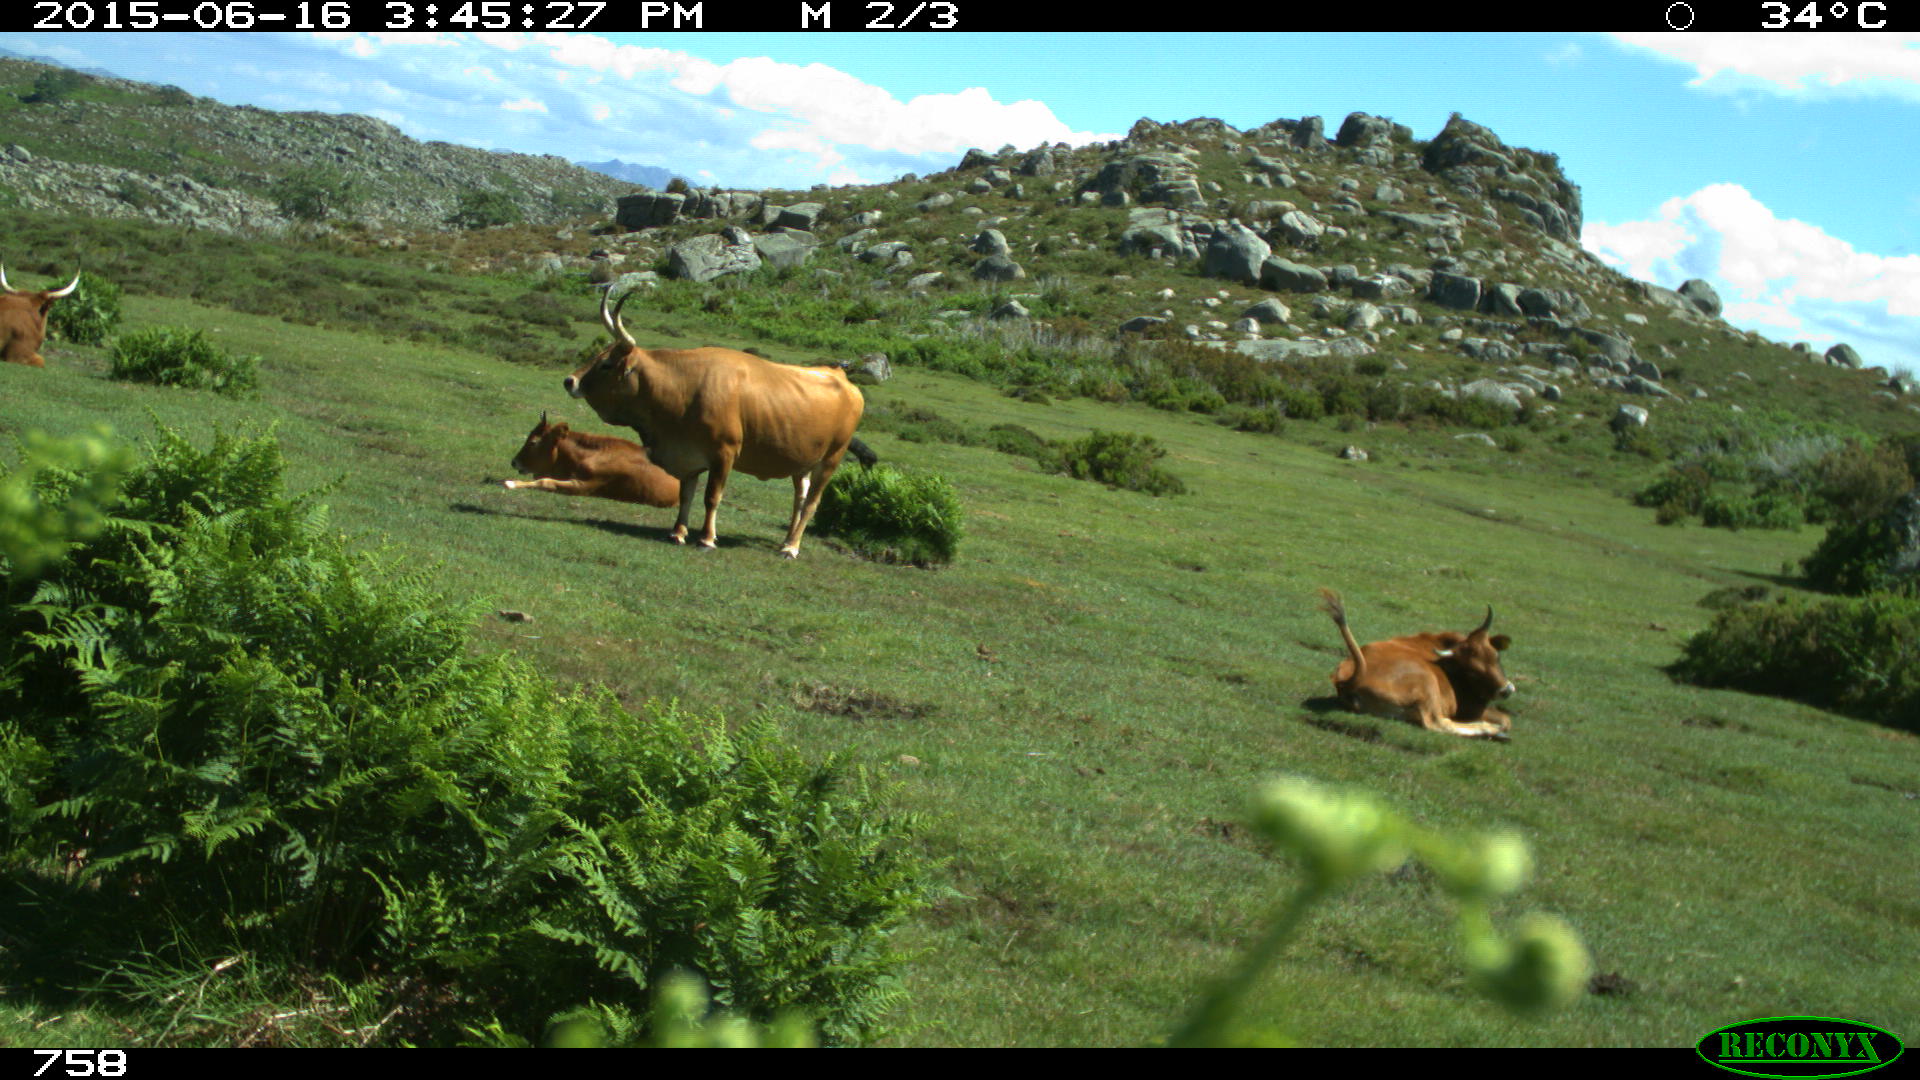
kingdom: Animalia
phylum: Chordata
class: Mammalia
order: Artiodactyla
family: Bovidae
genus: Bos
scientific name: Bos taurus
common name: Domesticated cattle
